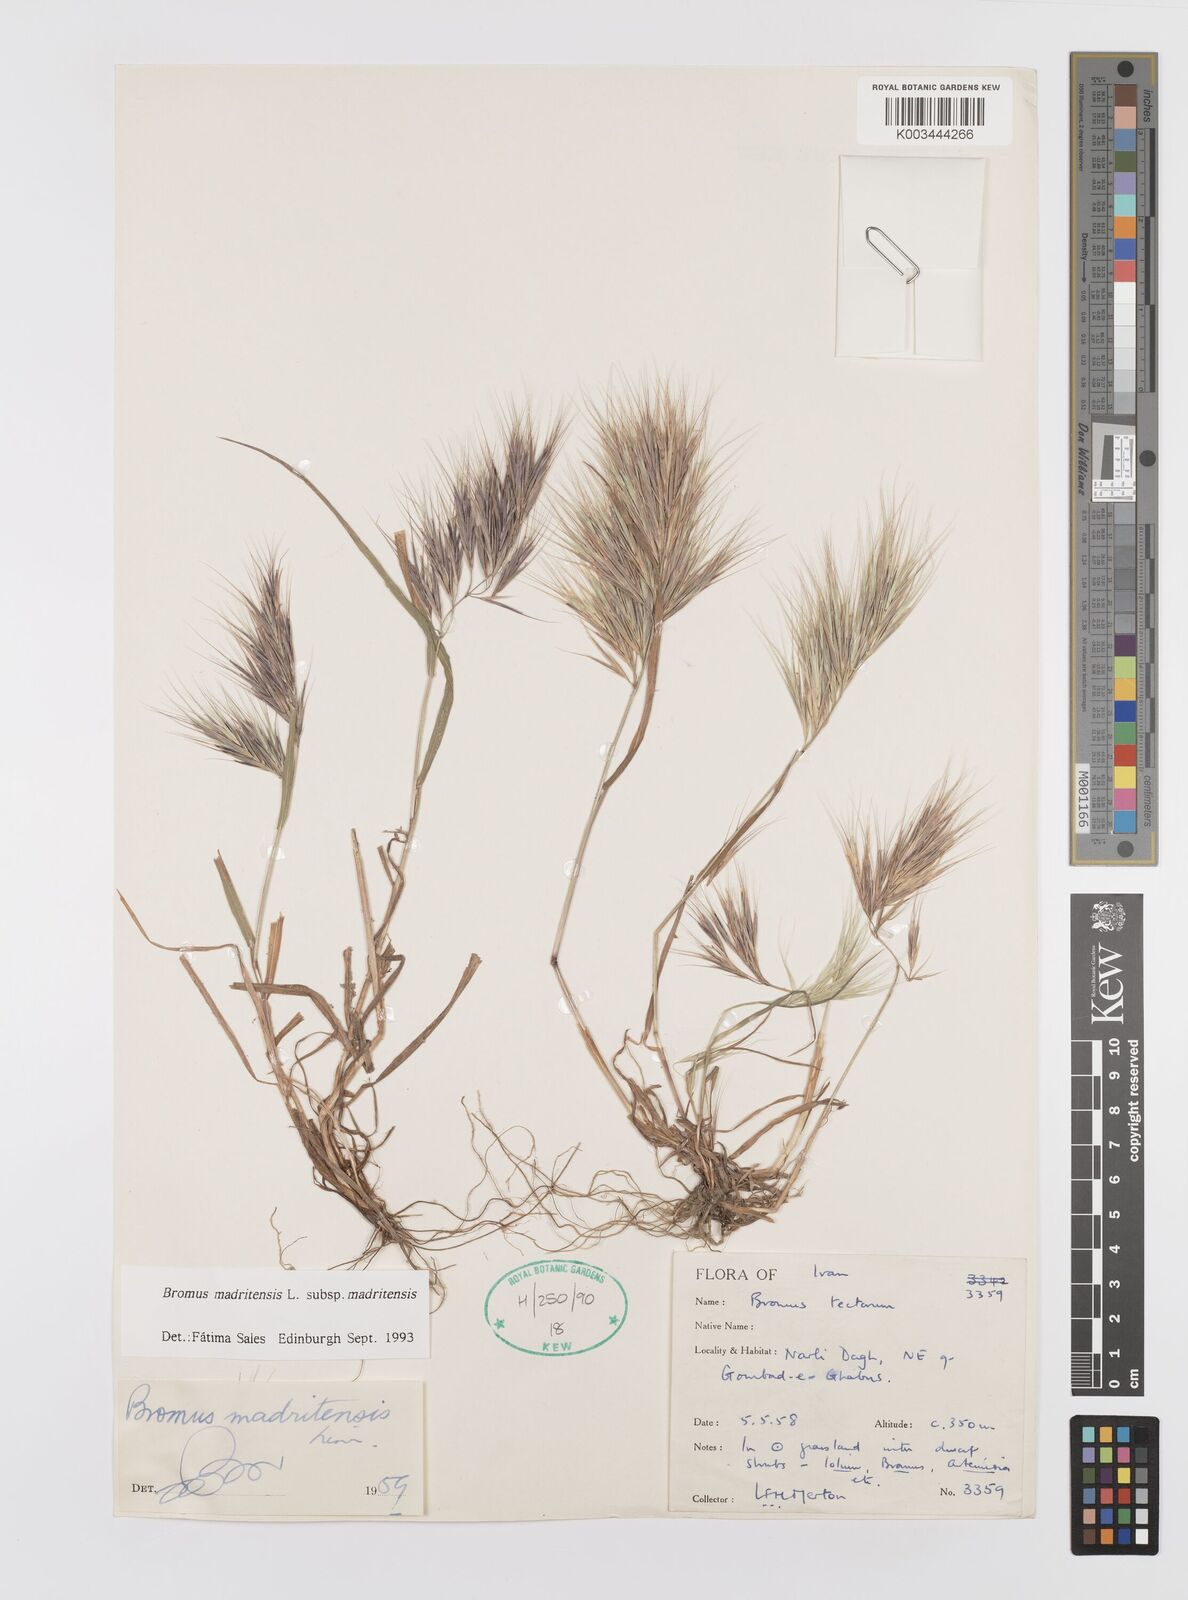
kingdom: Plantae
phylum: Tracheophyta
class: Liliopsida
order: Poales
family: Poaceae
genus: Bromus
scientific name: Bromus madritensis
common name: Compact brome
